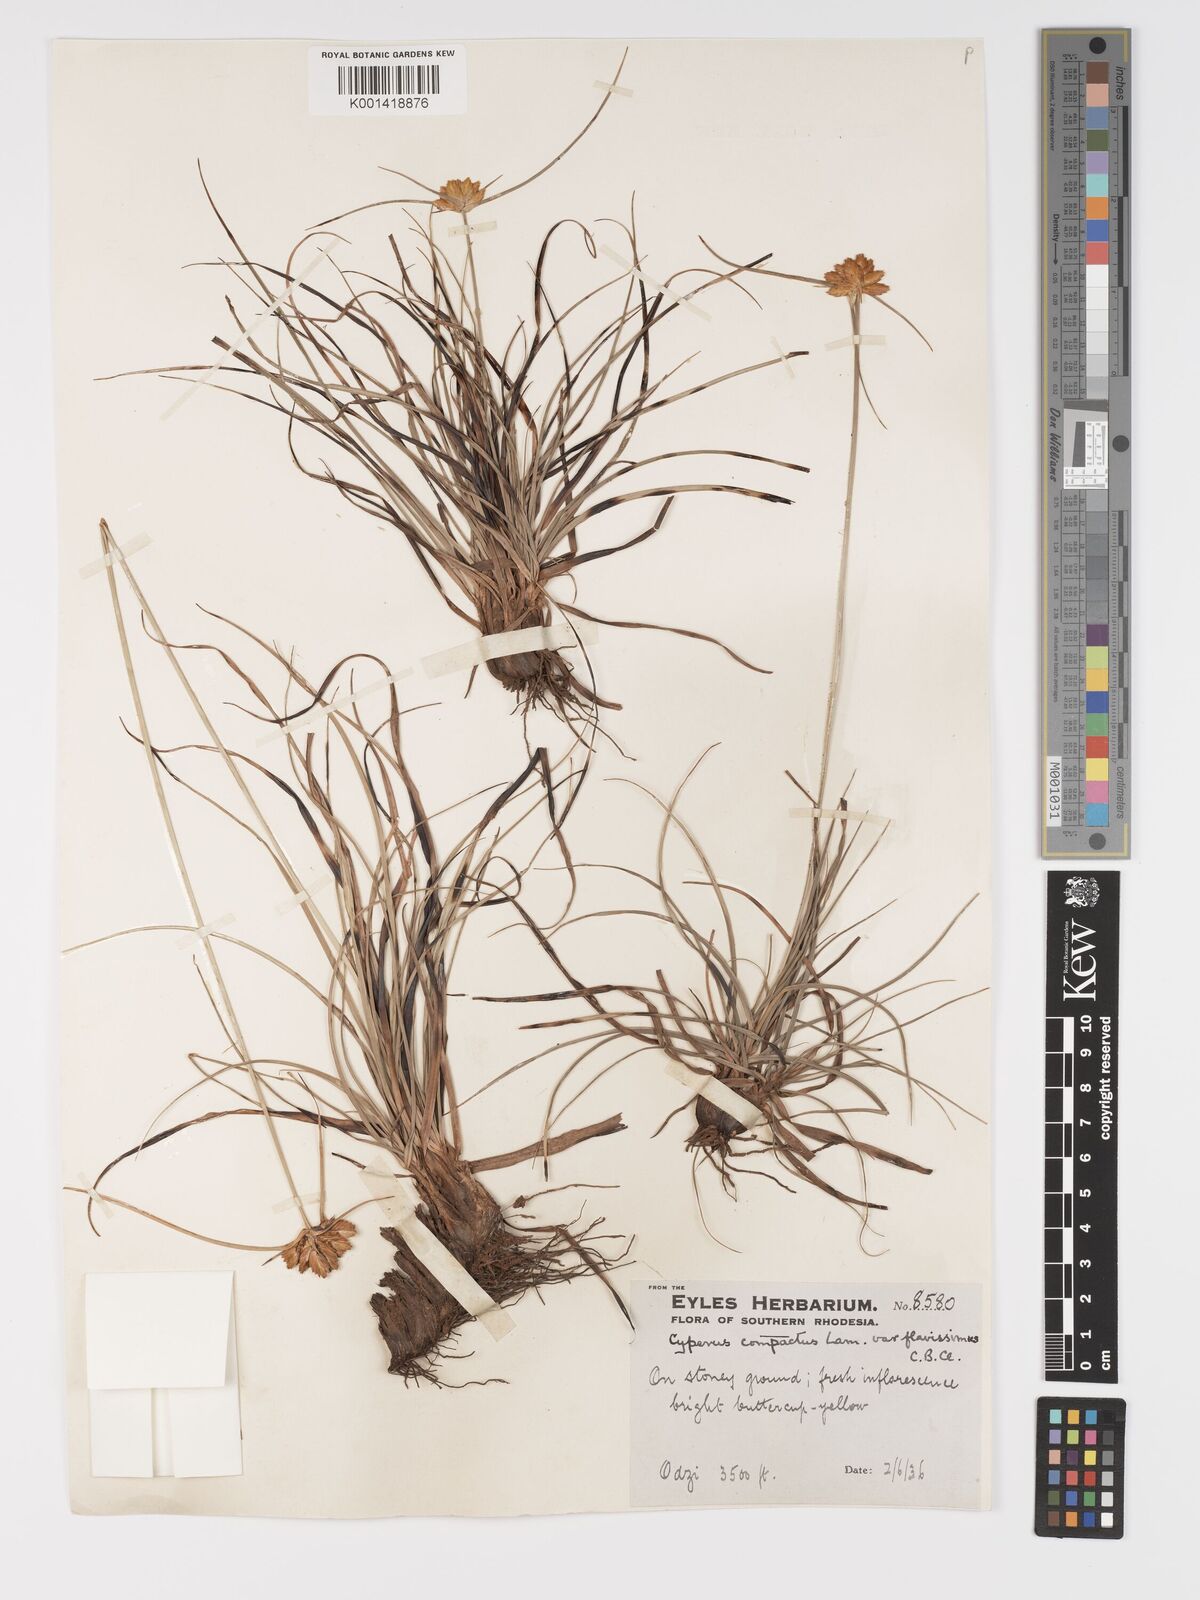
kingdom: Plantae
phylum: Tracheophyta
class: Liliopsida
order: Poales
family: Cyperaceae
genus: Cyperus
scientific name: Cyperus sphaerocephalus
